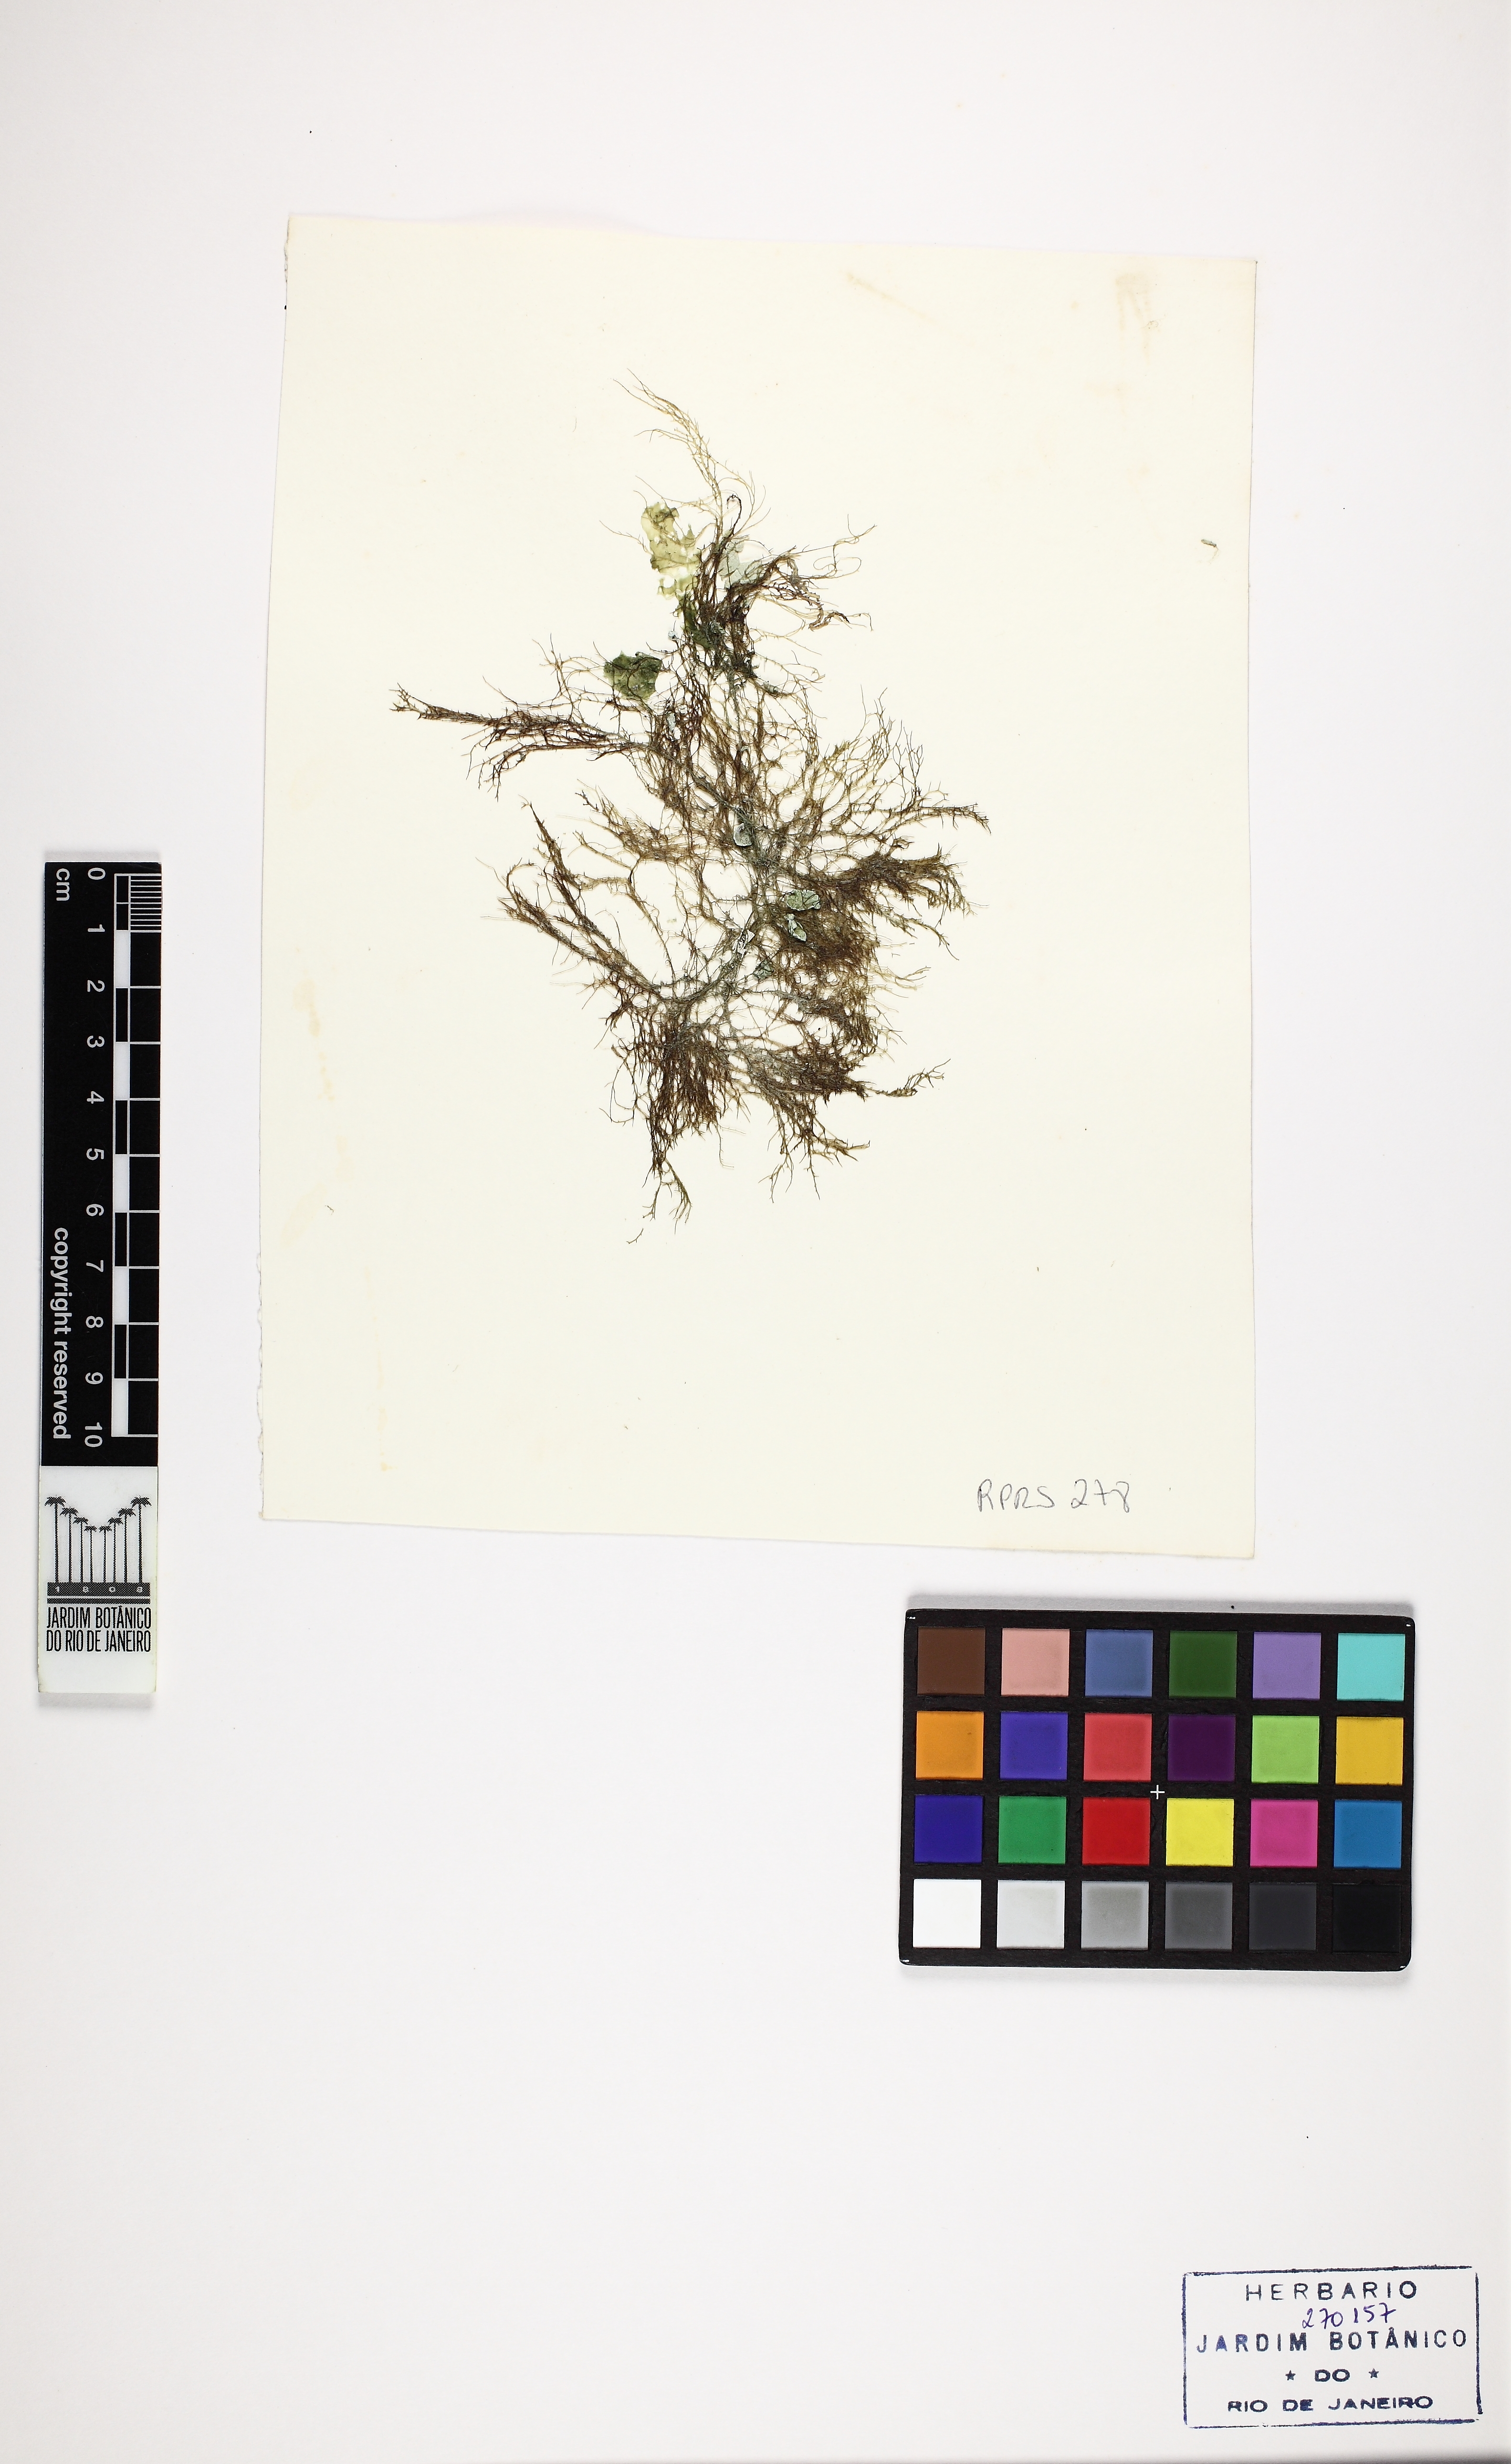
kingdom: Plantae
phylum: Rhodophyta
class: Florideophyceae
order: Gigartinales
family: Cystocloniaceae
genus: Hypnea
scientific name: Hypnea cornuta
